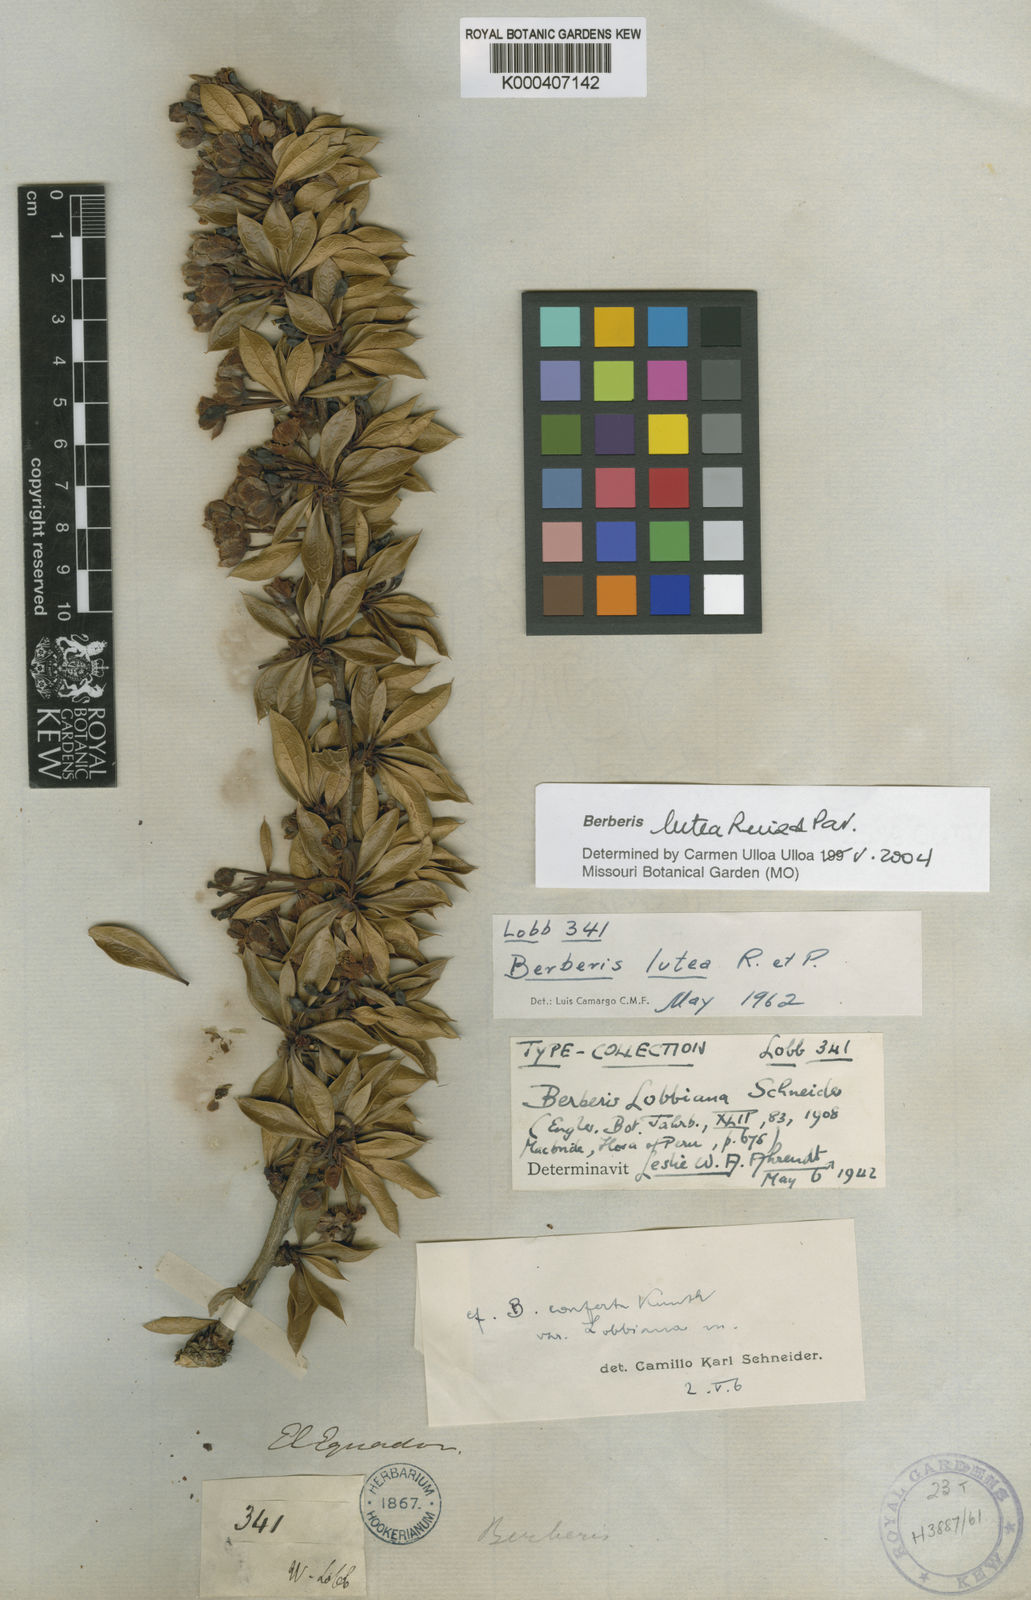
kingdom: Plantae
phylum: Tracheophyta
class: Magnoliopsida
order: Ranunculales
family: Berberidaceae
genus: Berberis
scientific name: Berberis lutea
